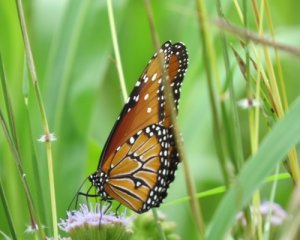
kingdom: Animalia
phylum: Arthropoda
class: Insecta
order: Lepidoptera
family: Nymphalidae
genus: Danaus
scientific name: Danaus gilippus
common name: Queen
